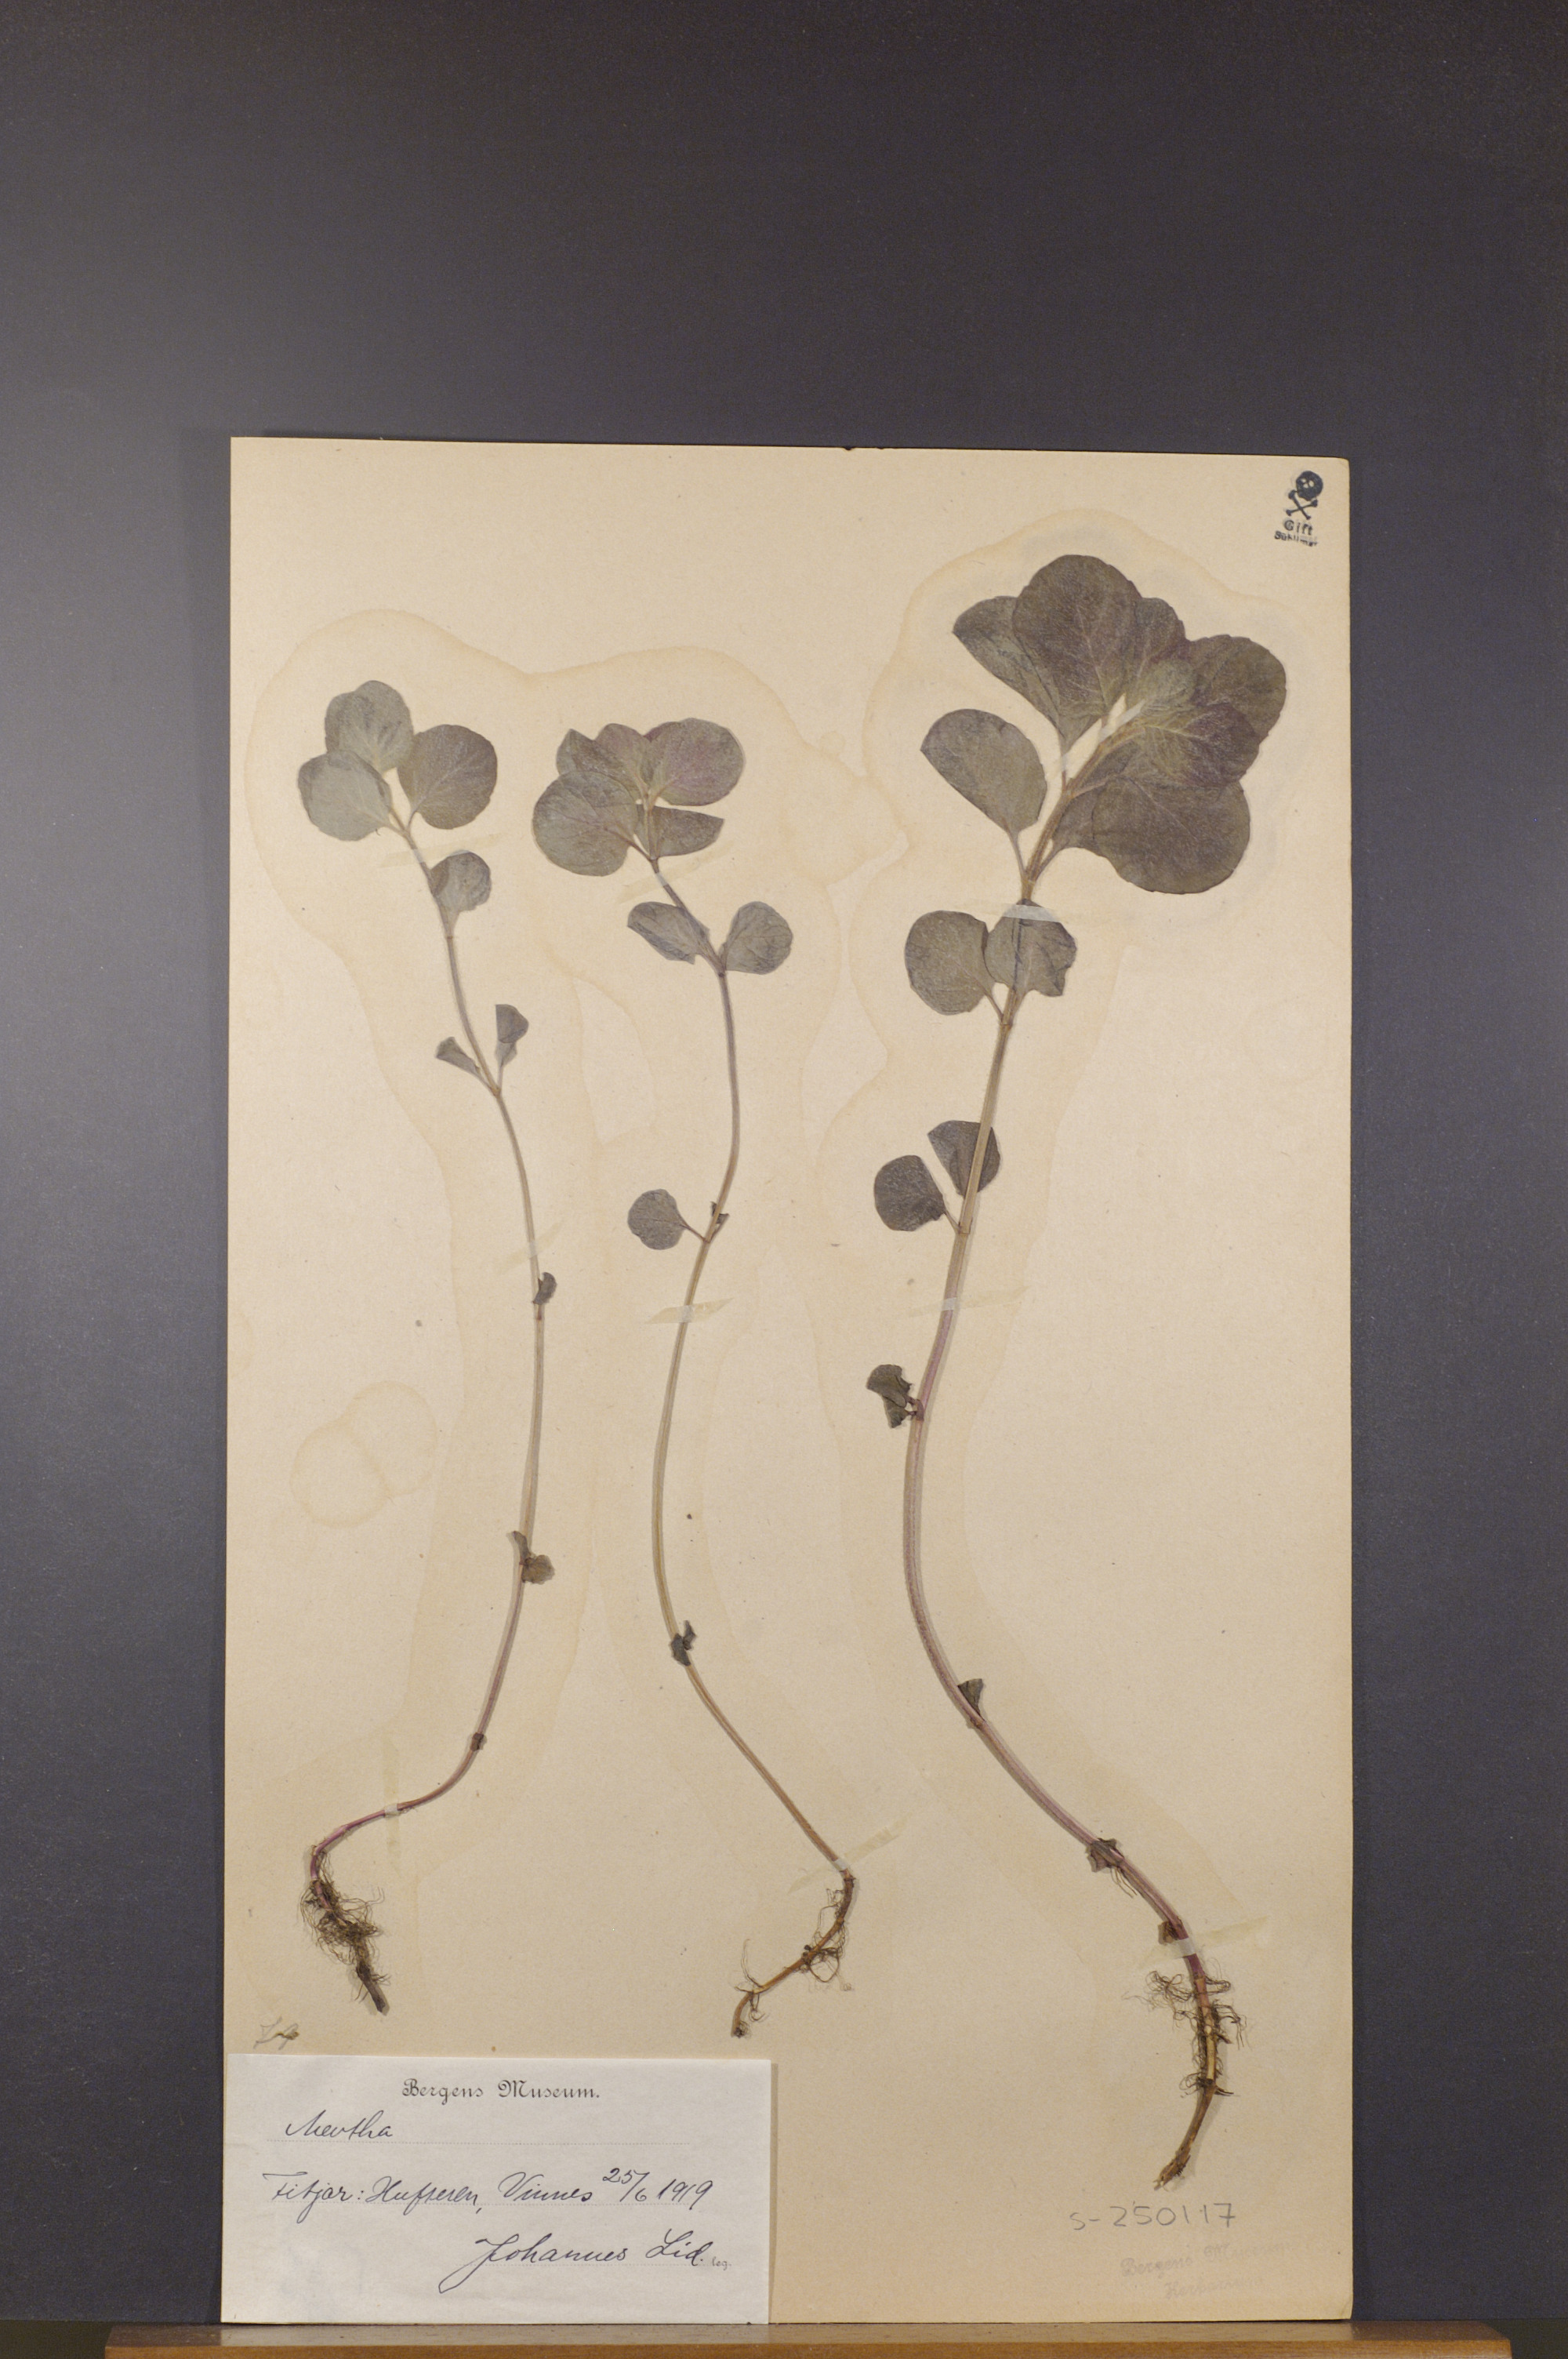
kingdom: Plantae
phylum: Tracheophyta
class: Magnoliopsida
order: Lamiales
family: Lamiaceae
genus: Mentha
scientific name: Mentha
